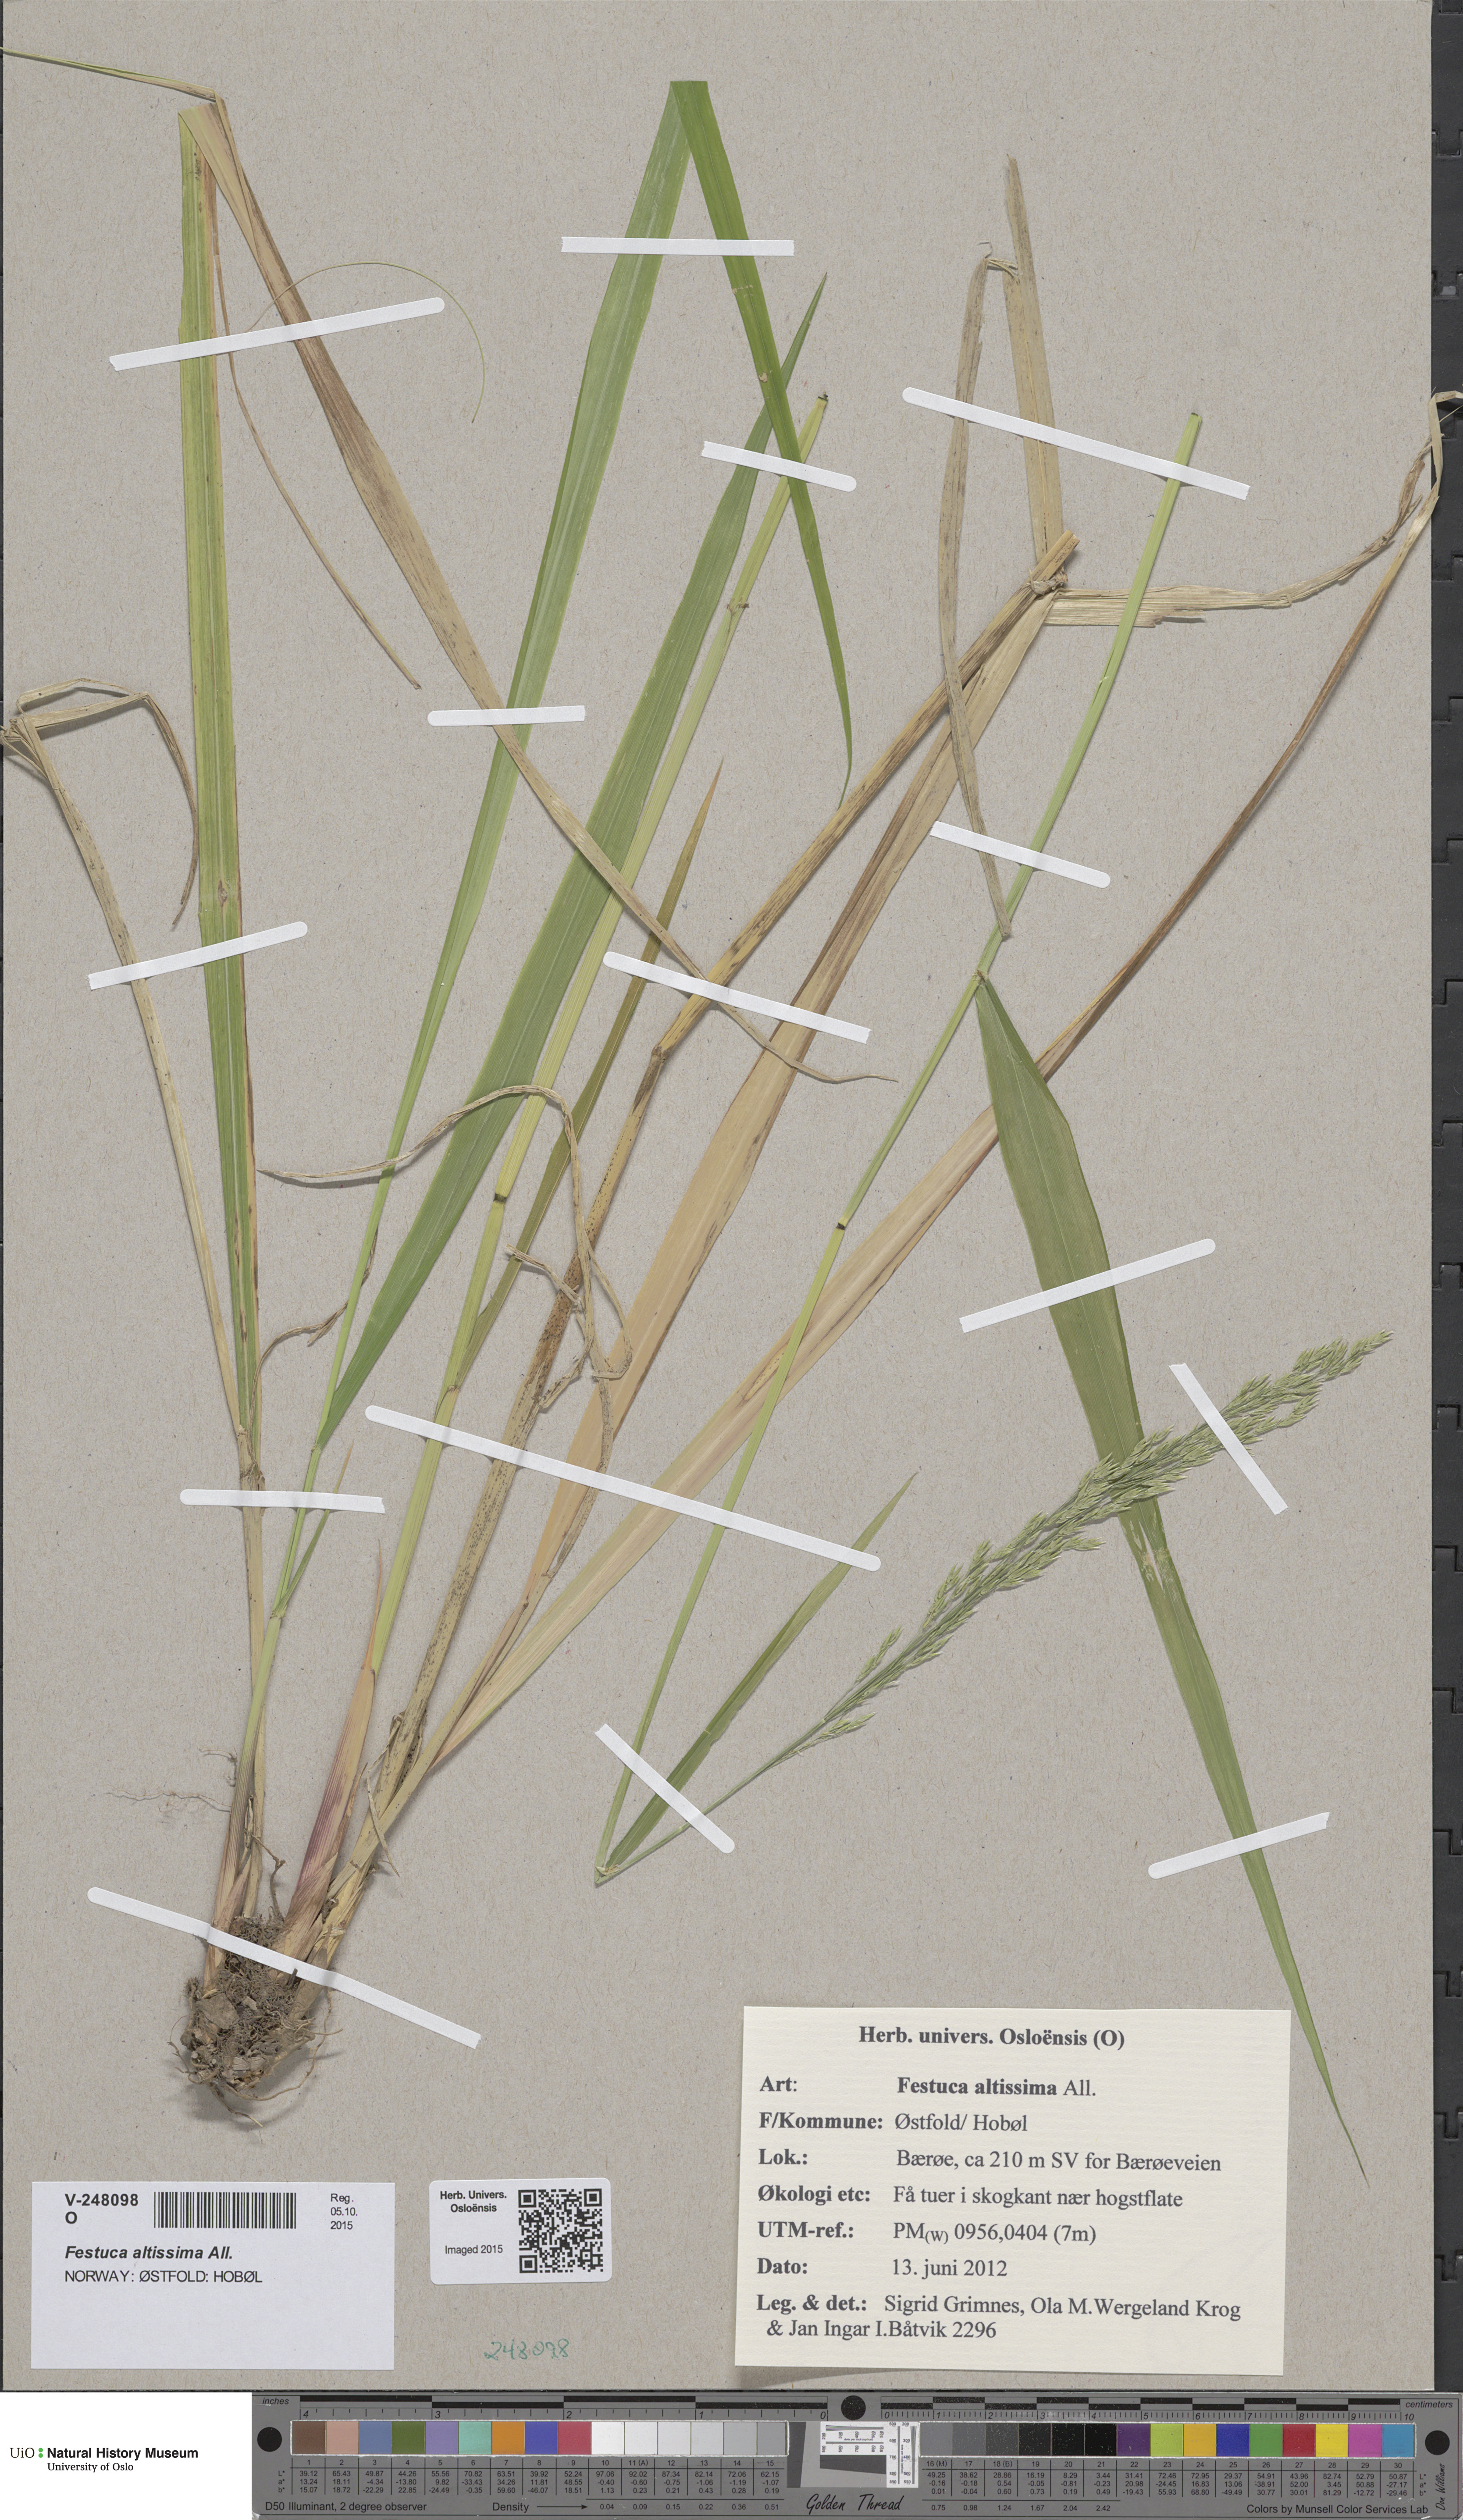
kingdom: Plantae
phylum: Tracheophyta
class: Liliopsida
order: Poales
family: Poaceae
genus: Festuca
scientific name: Festuca altissima
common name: Wood fescue
